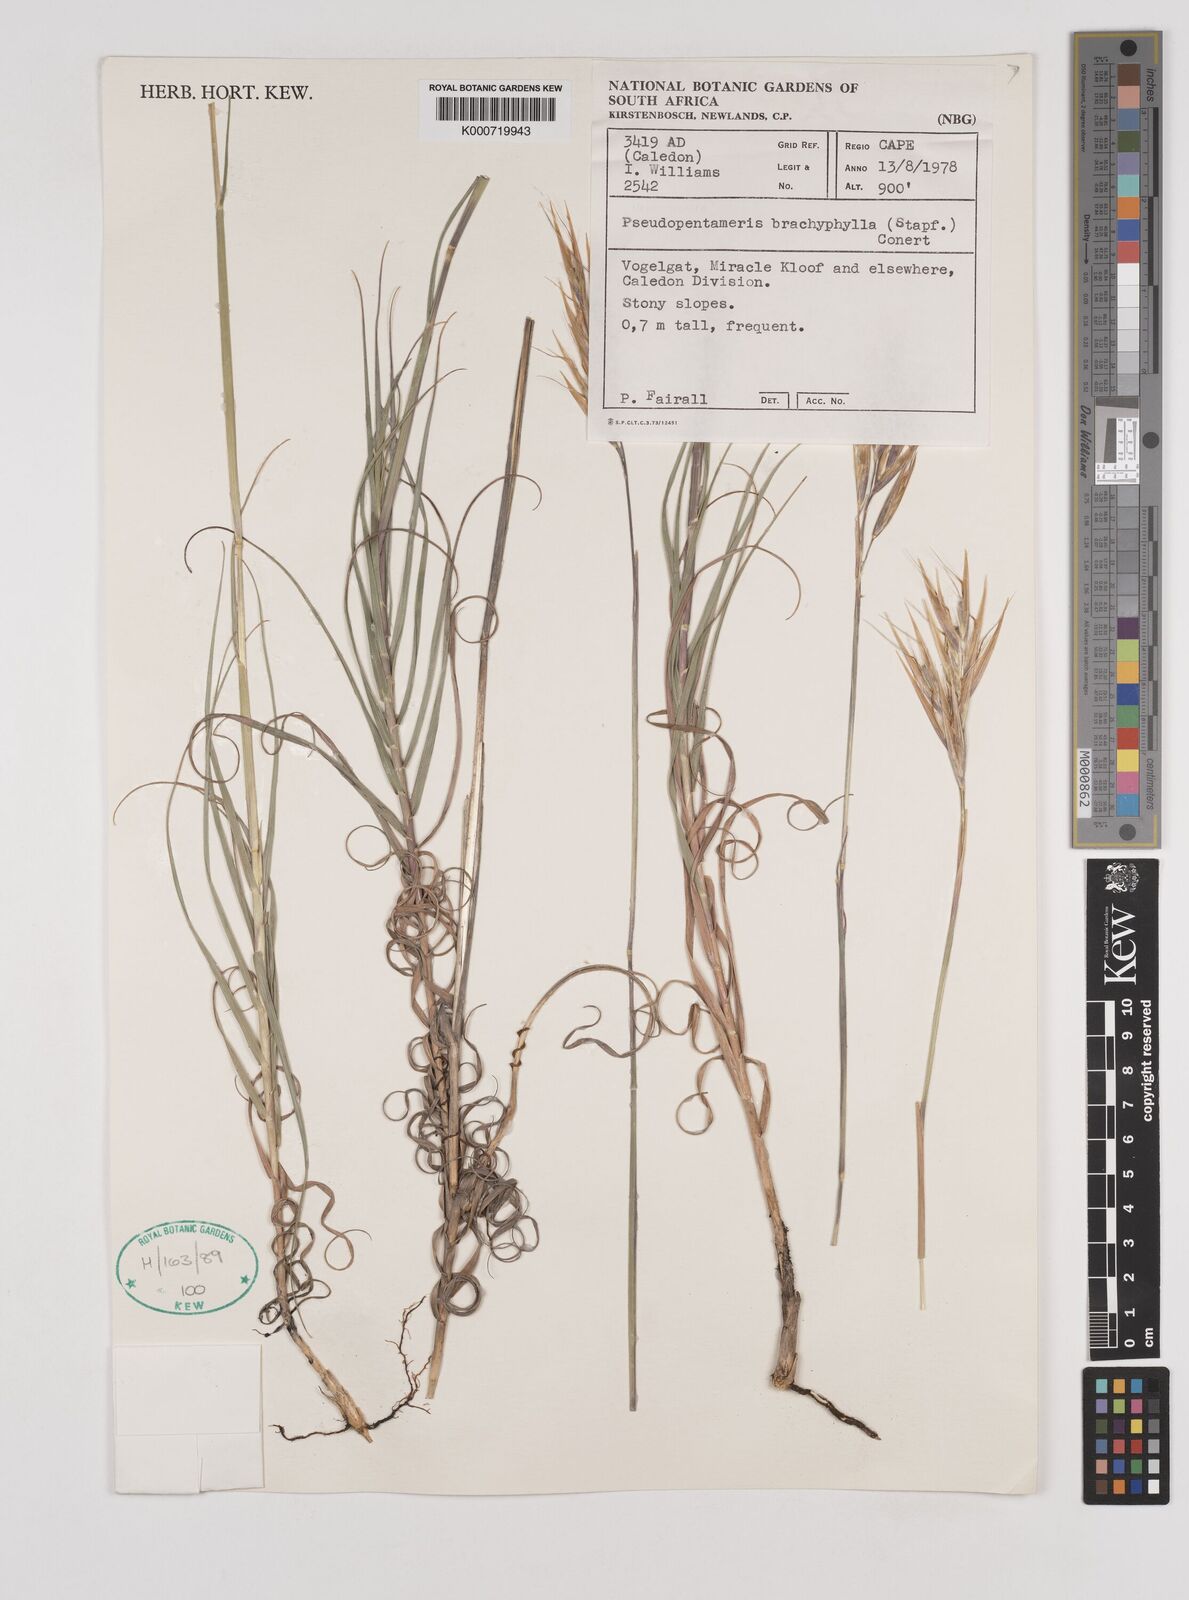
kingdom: Plantae
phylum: Tracheophyta
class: Liliopsida
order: Poales
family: Poaceae
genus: Pseudopentameris
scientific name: Pseudopentameris brachyphylla
